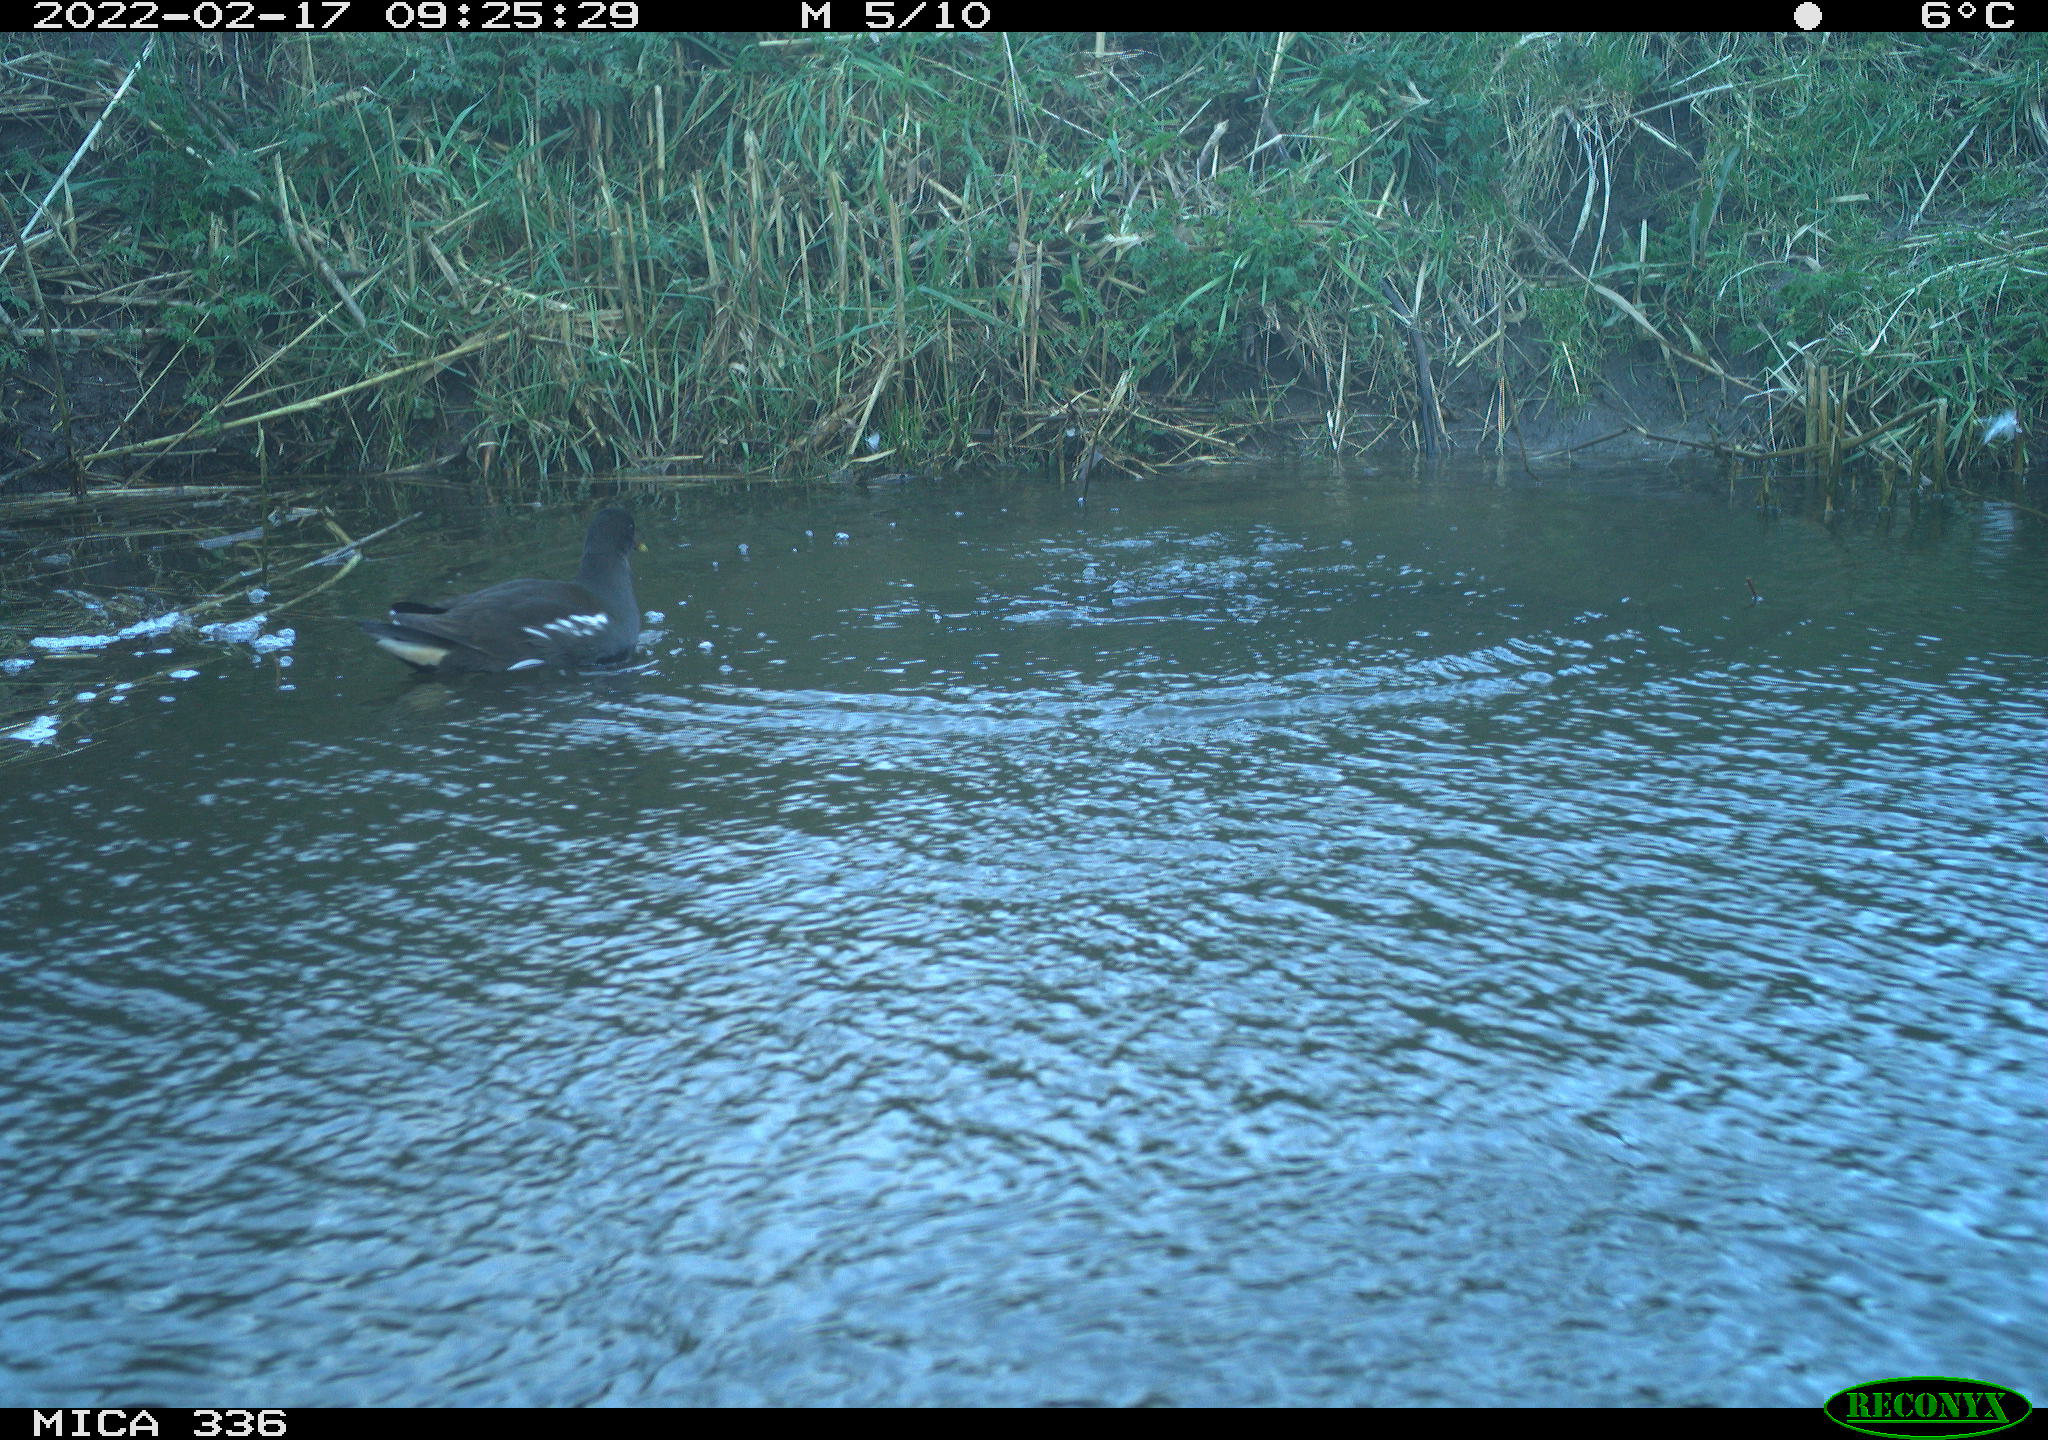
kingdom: Animalia
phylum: Chordata
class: Aves
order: Gruiformes
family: Rallidae
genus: Gallinula
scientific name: Gallinula chloropus
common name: Common moorhen
